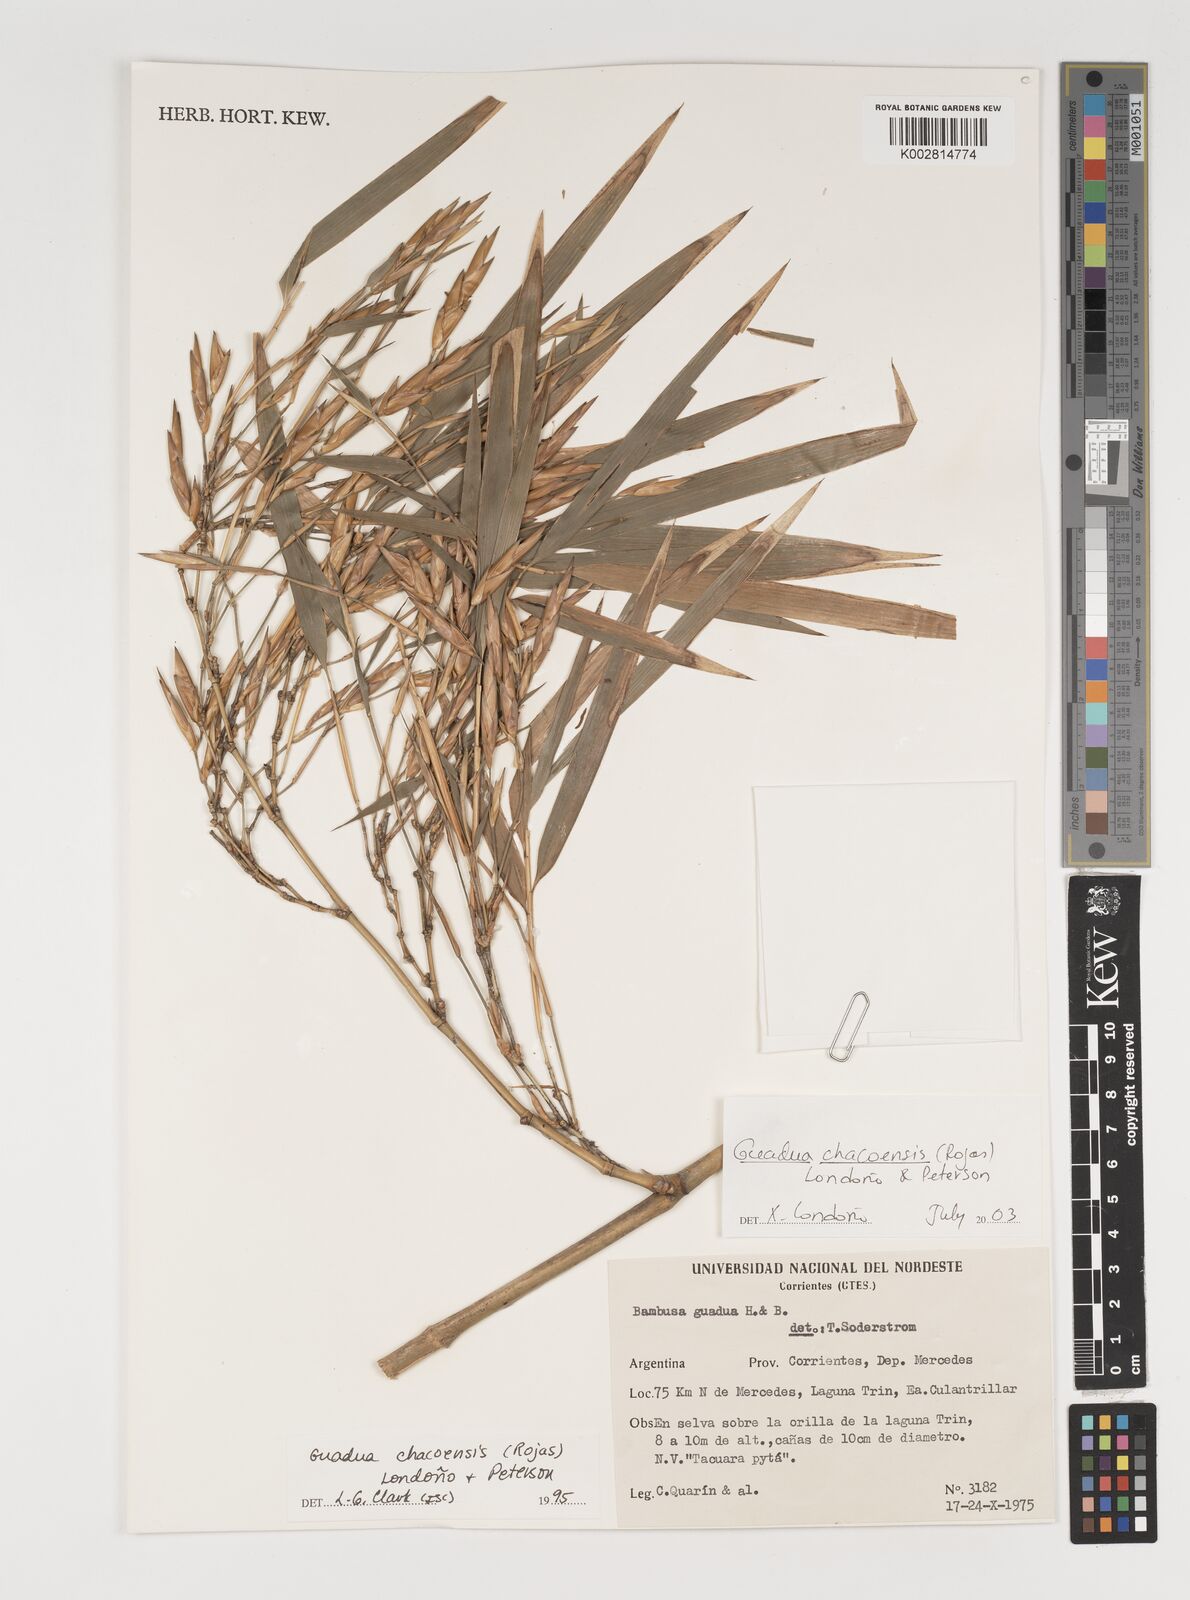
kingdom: Plantae
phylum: Tracheophyta
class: Liliopsida
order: Poales
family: Poaceae
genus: Guadua
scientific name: Guadua chacoensis
